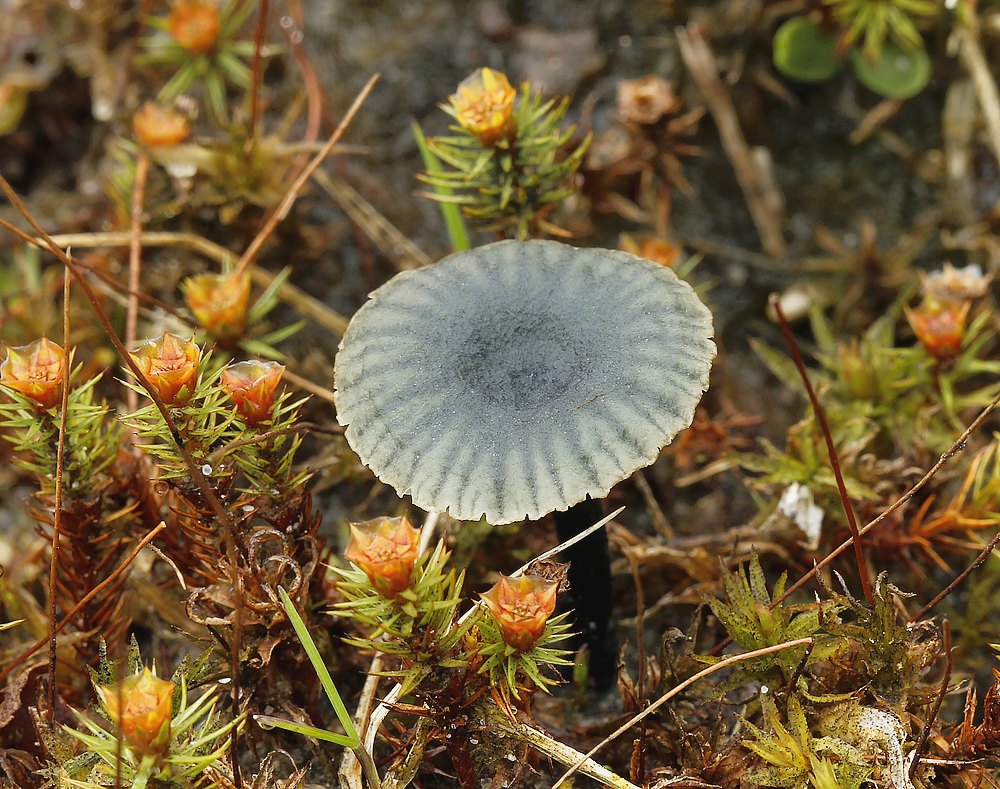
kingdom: Fungi
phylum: Basidiomycota
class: Agaricomycetes
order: Agaricales
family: Hygrophoraceae
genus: Arrhenia
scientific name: Arrhenia chlorocyanea
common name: blågrøn fontænehat
